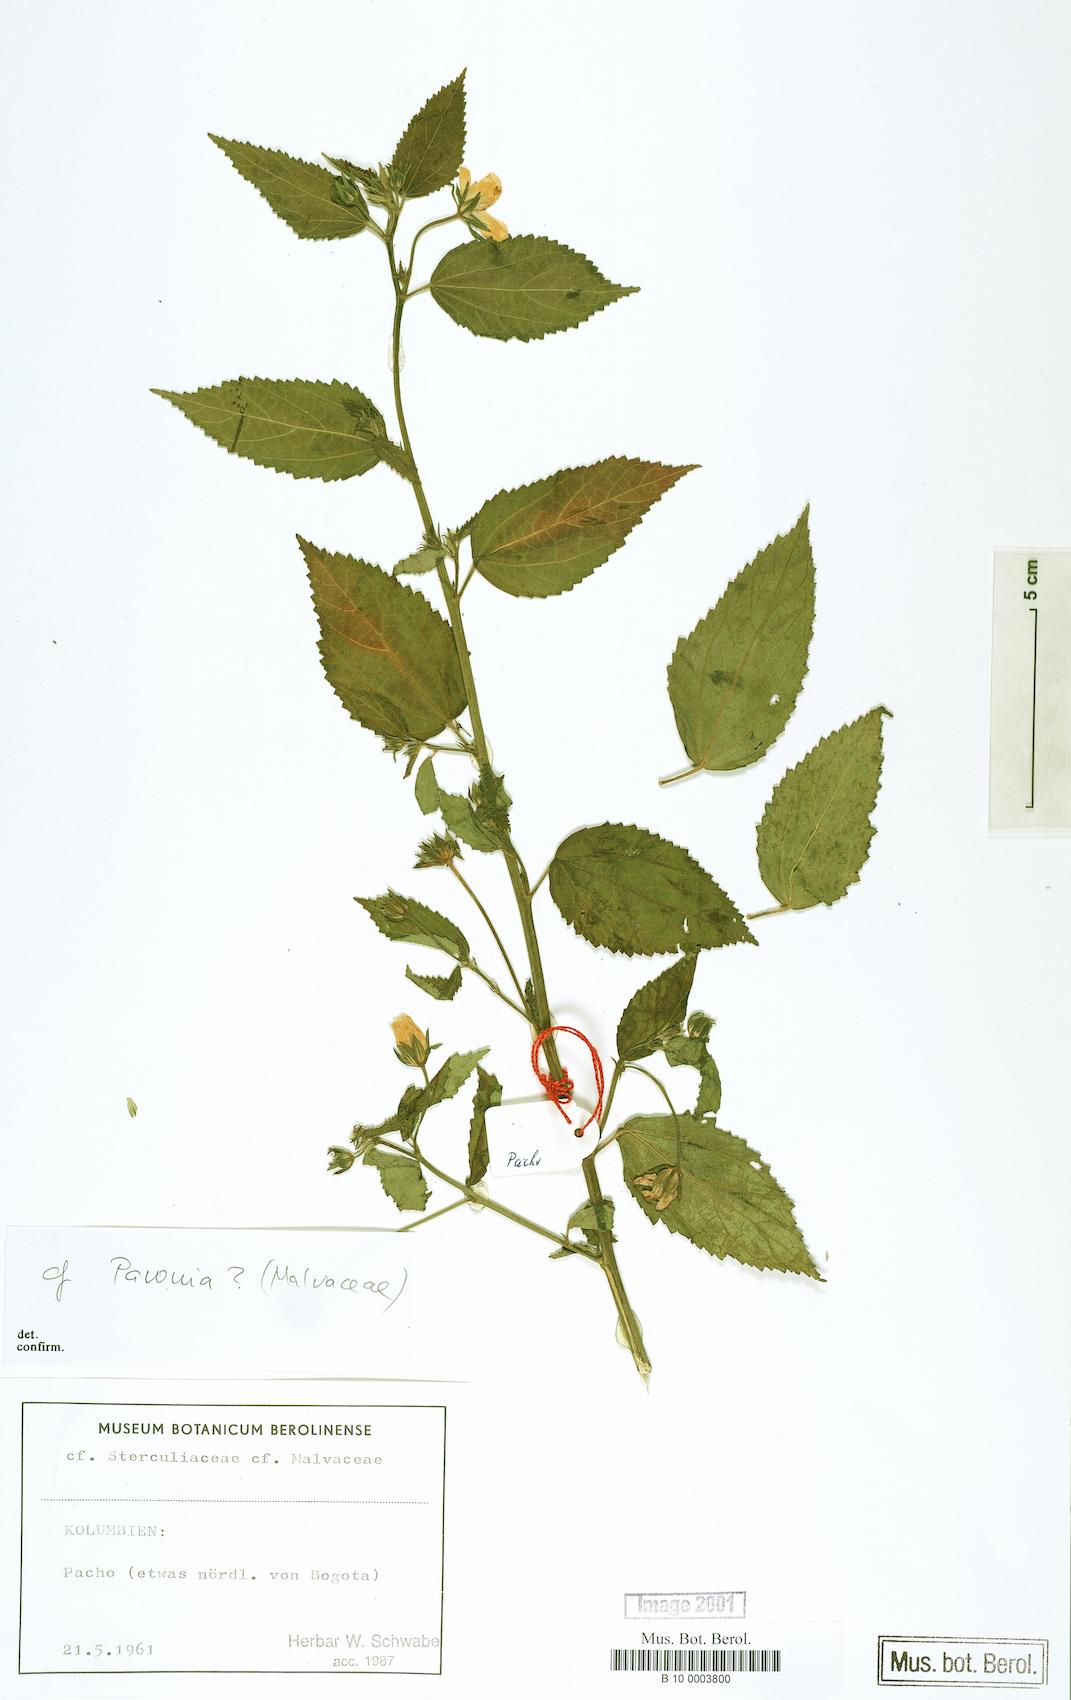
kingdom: Plantae
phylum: Tracheophyta
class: Magnoliopsida
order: Malvales
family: Malvaceae
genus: Pavonia
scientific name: Pavonia
